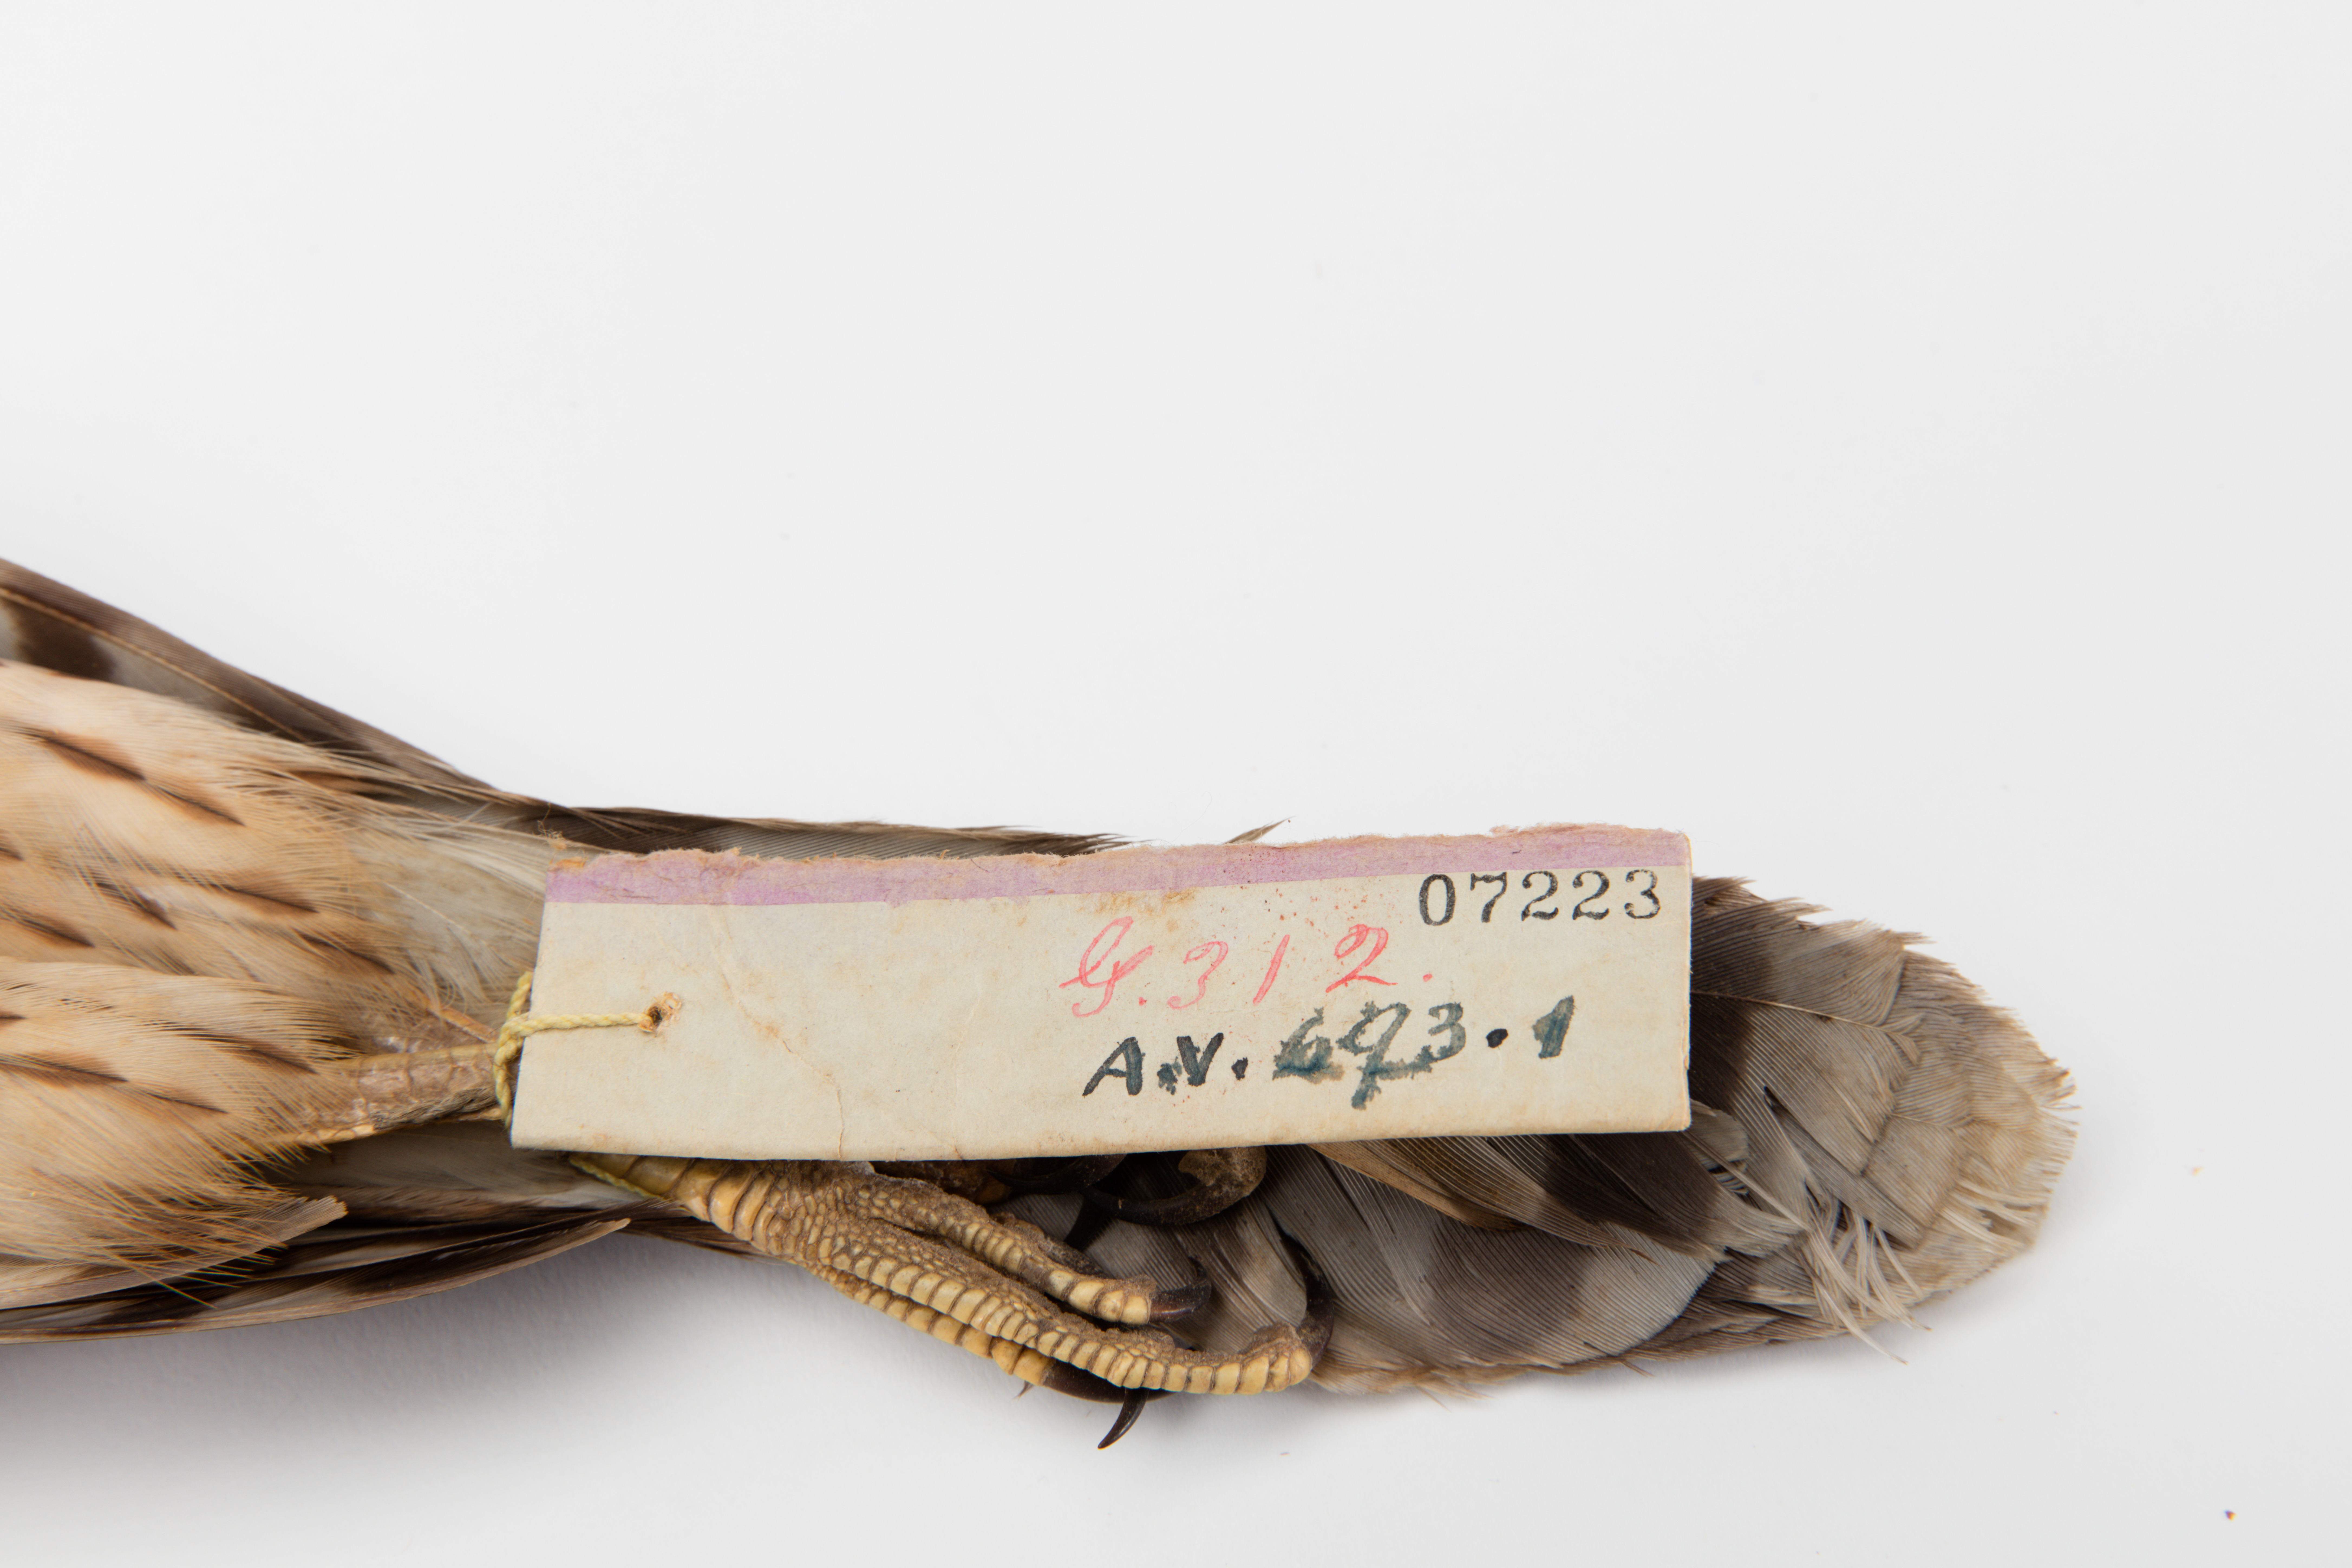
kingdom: Animalia
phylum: Chordata
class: Aves
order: Accipitriformes
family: Accipitridae
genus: Accipiter
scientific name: Accipiter cooperii
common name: Cooper's hawk
